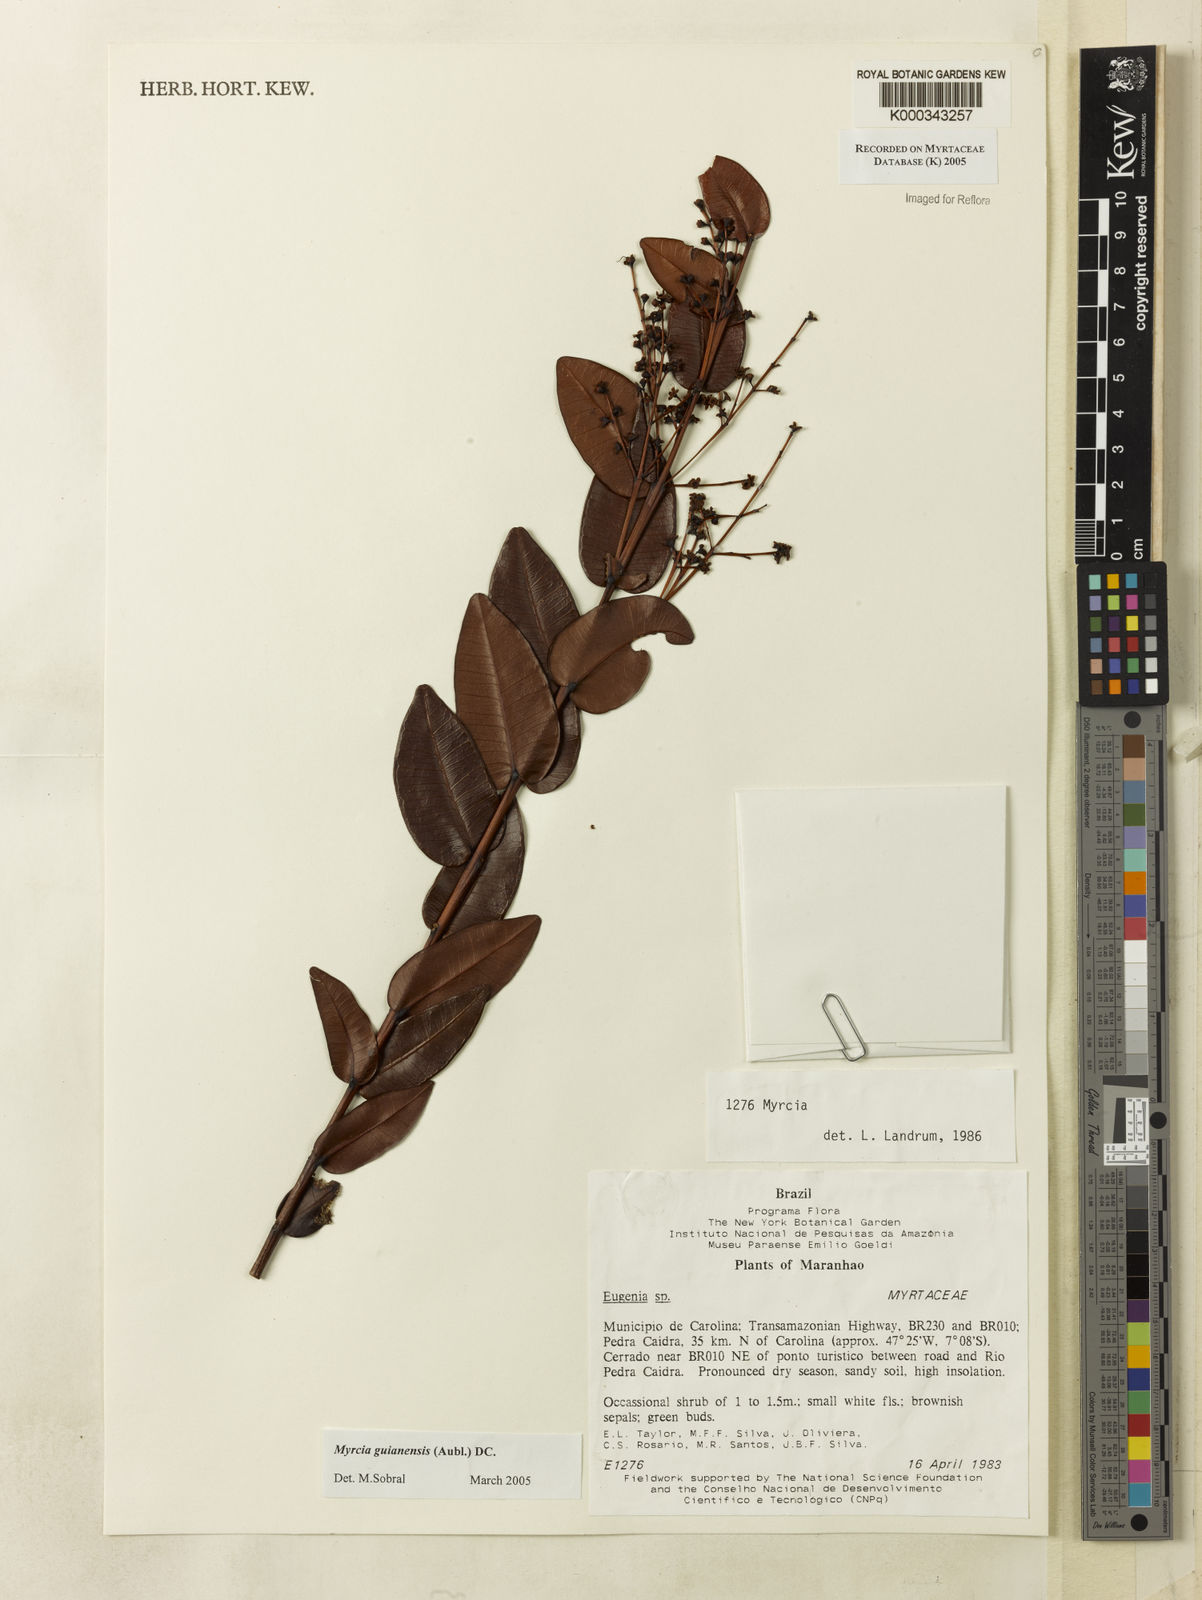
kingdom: Plantae
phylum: Tracheophyta
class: Magnoliopsida
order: Myrtales
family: Myrtaceae
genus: Myrcia
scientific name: Myrcia guianensis
